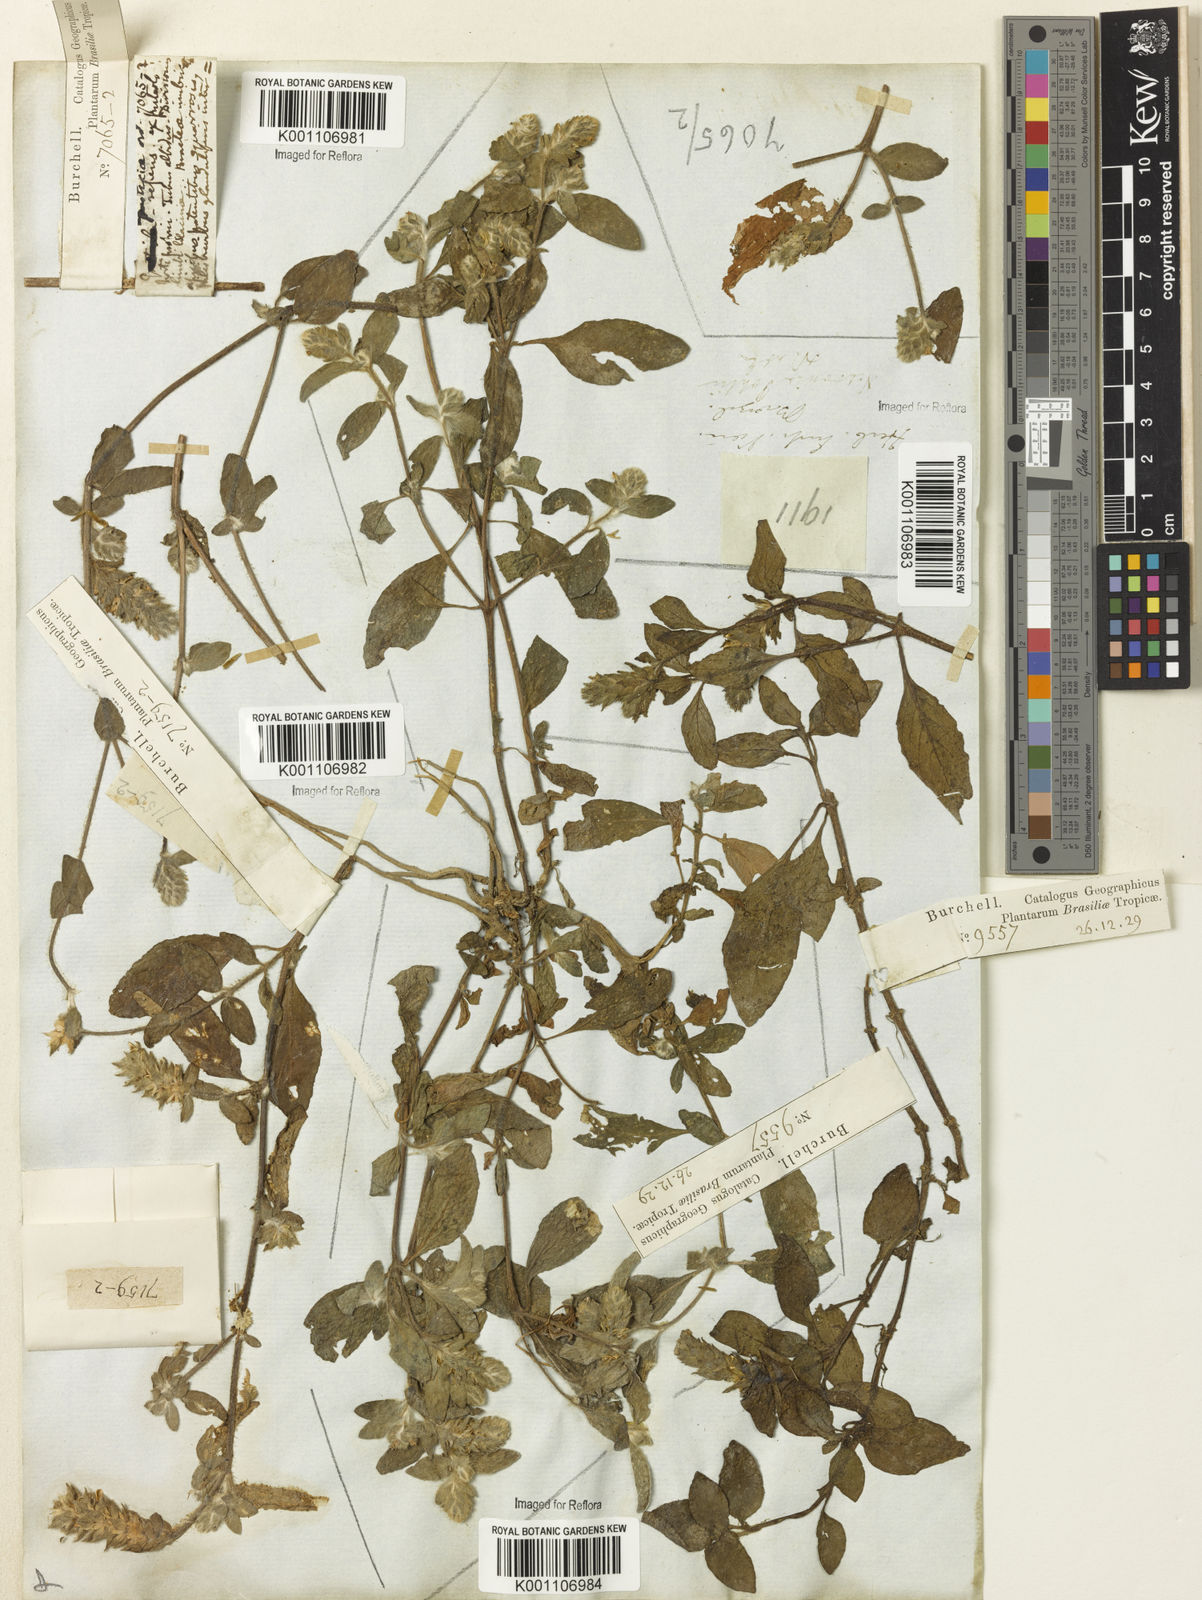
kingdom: Plantae
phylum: Tracheophyta
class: Magnoliopsida
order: Lamiales
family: Acanthaceae
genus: Nelsonia
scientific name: Nelsonia canescens
